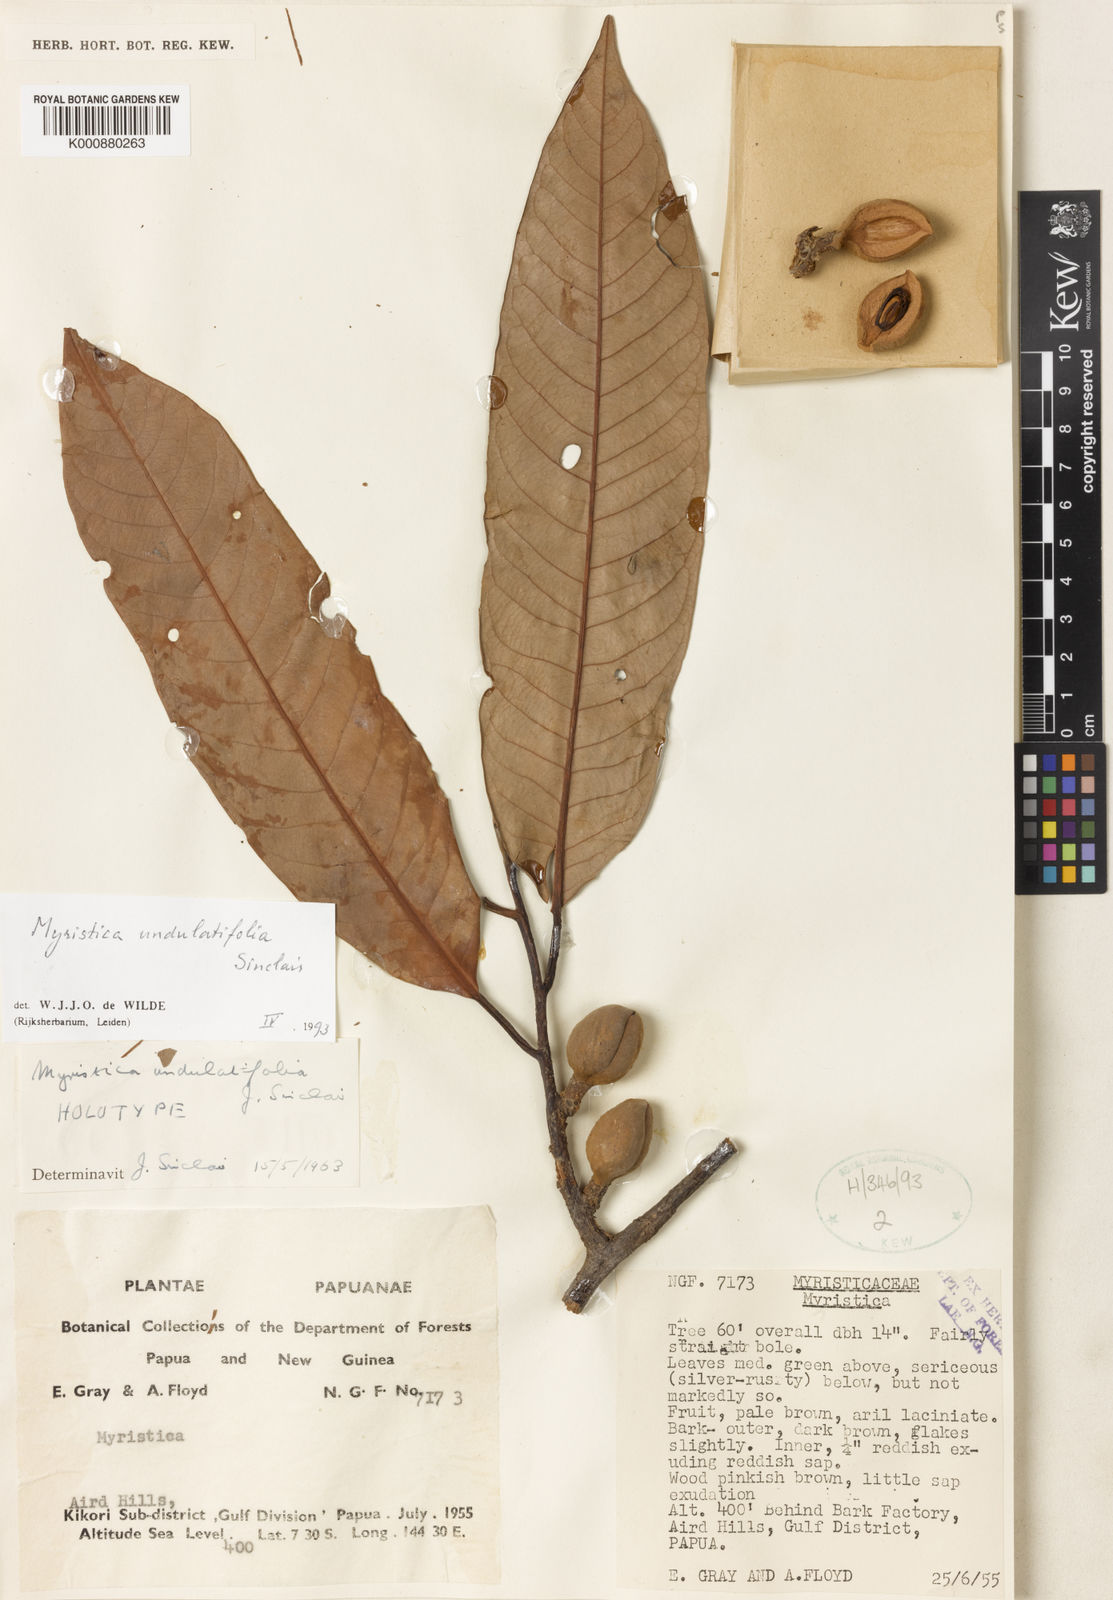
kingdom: Plantae
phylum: Tracheophyta
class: Magnoliopsida
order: Magnoliales
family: Myristicaceae
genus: Myristica
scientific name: Myristica undulatifolia
